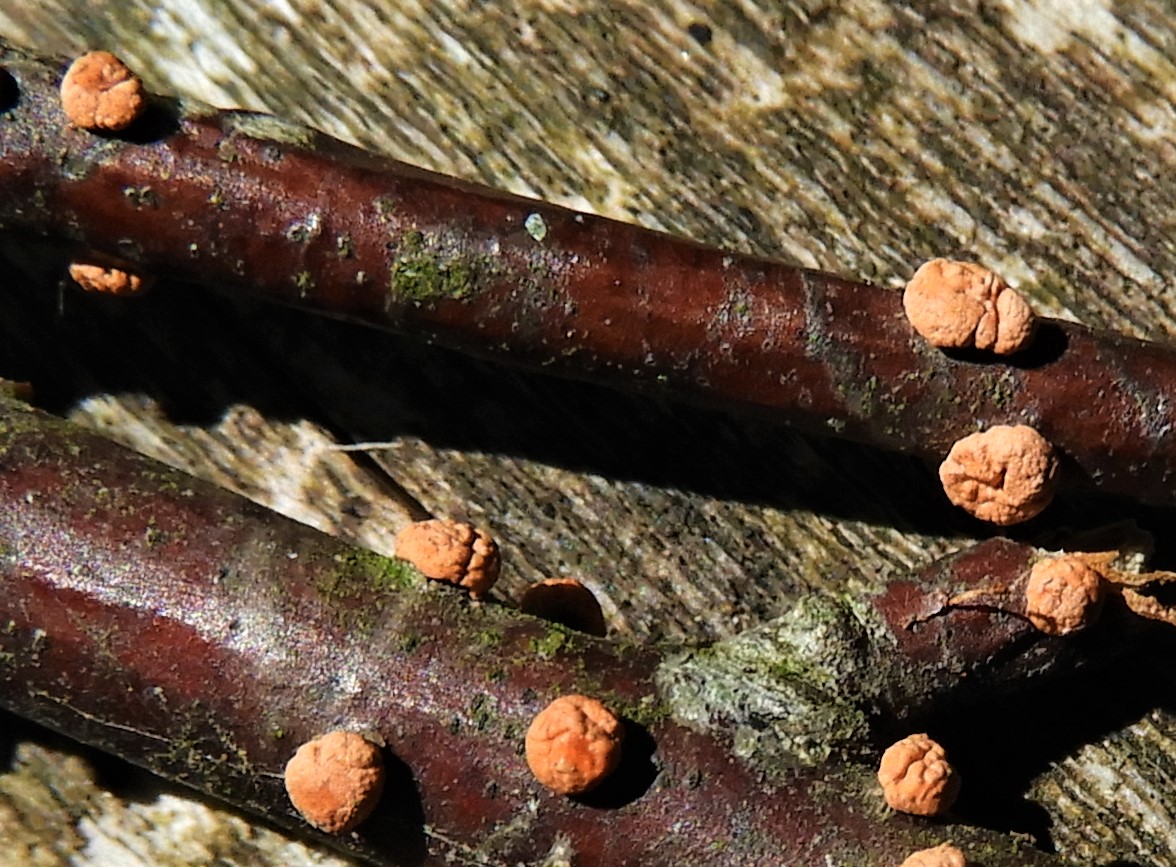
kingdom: Fungi
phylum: Ascomycota
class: Sordariomycetes
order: Hypocreales
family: Nectriaceae
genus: Nectria
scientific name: Nectria cinnabarina
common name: almindelig cinnobersvamp
